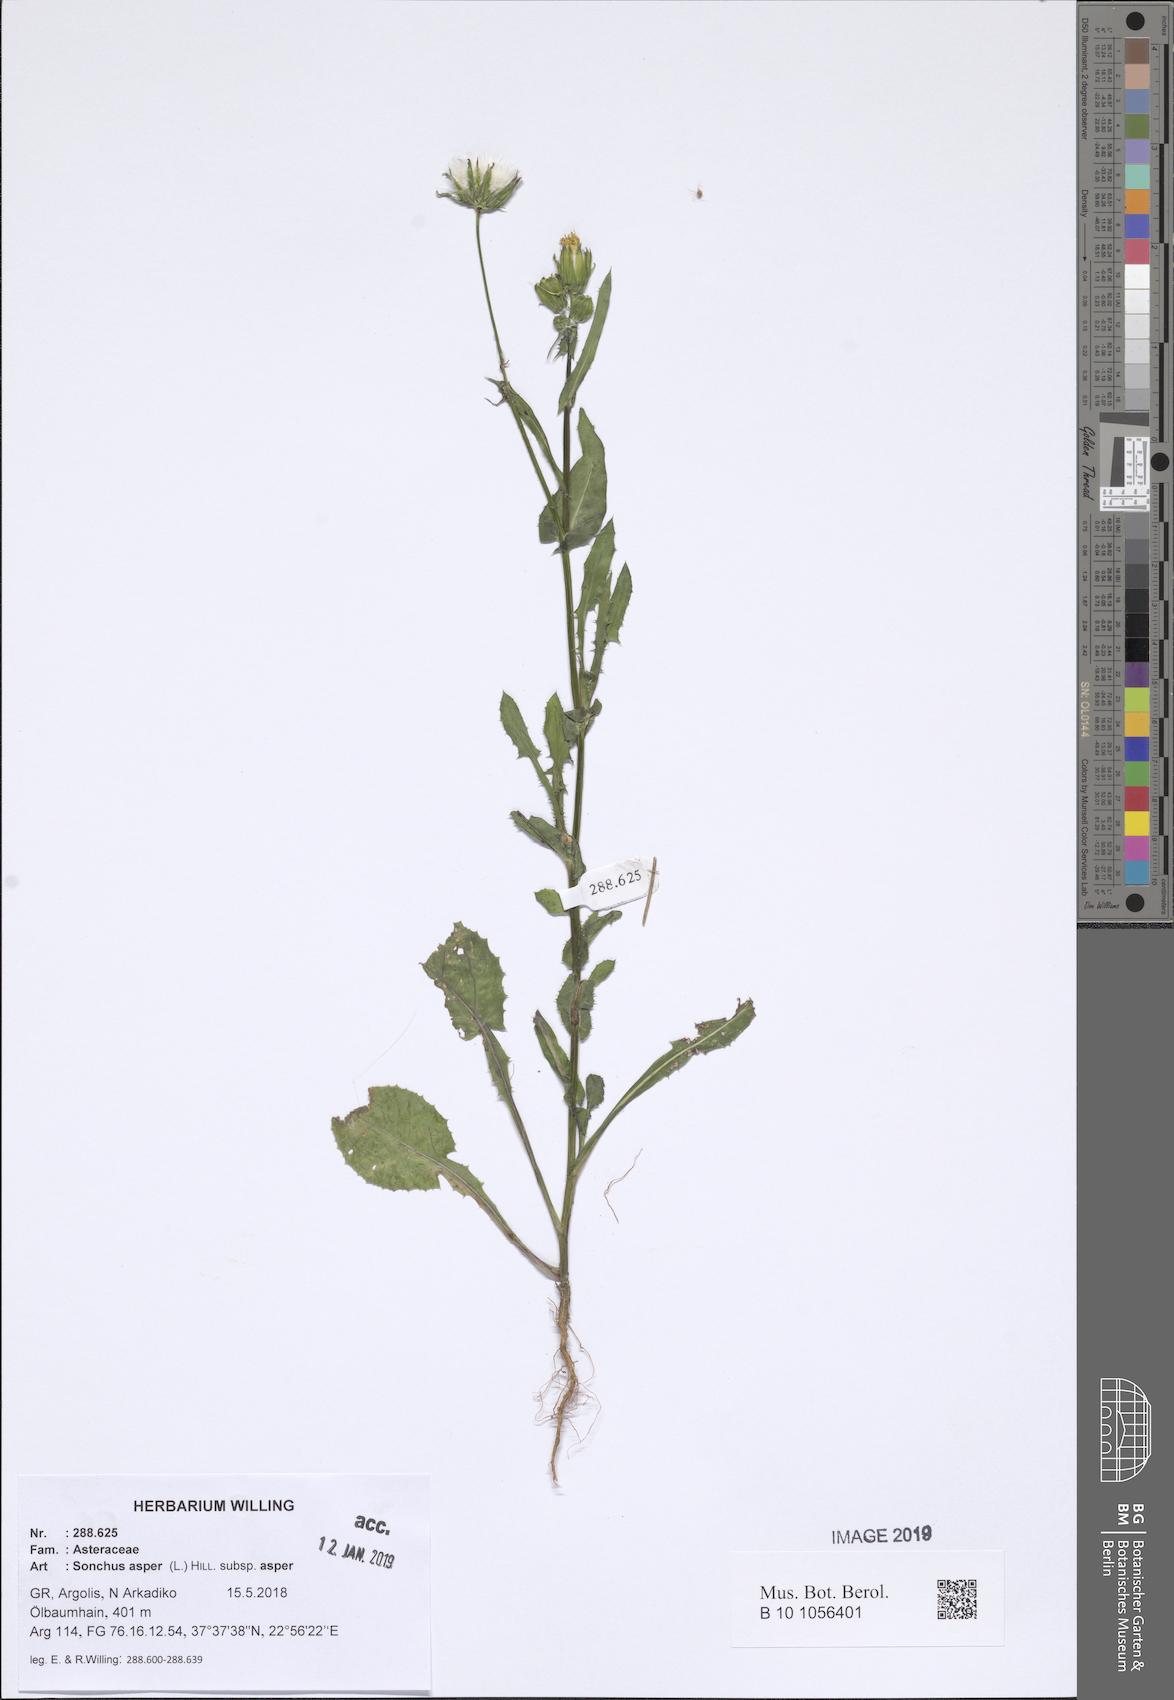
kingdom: Plantae
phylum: Tracheophyta
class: Magnoliopsida
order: Asterales
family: Asteraceae
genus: Sonchus
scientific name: Sonchus asper
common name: Prickly sow-thistle
